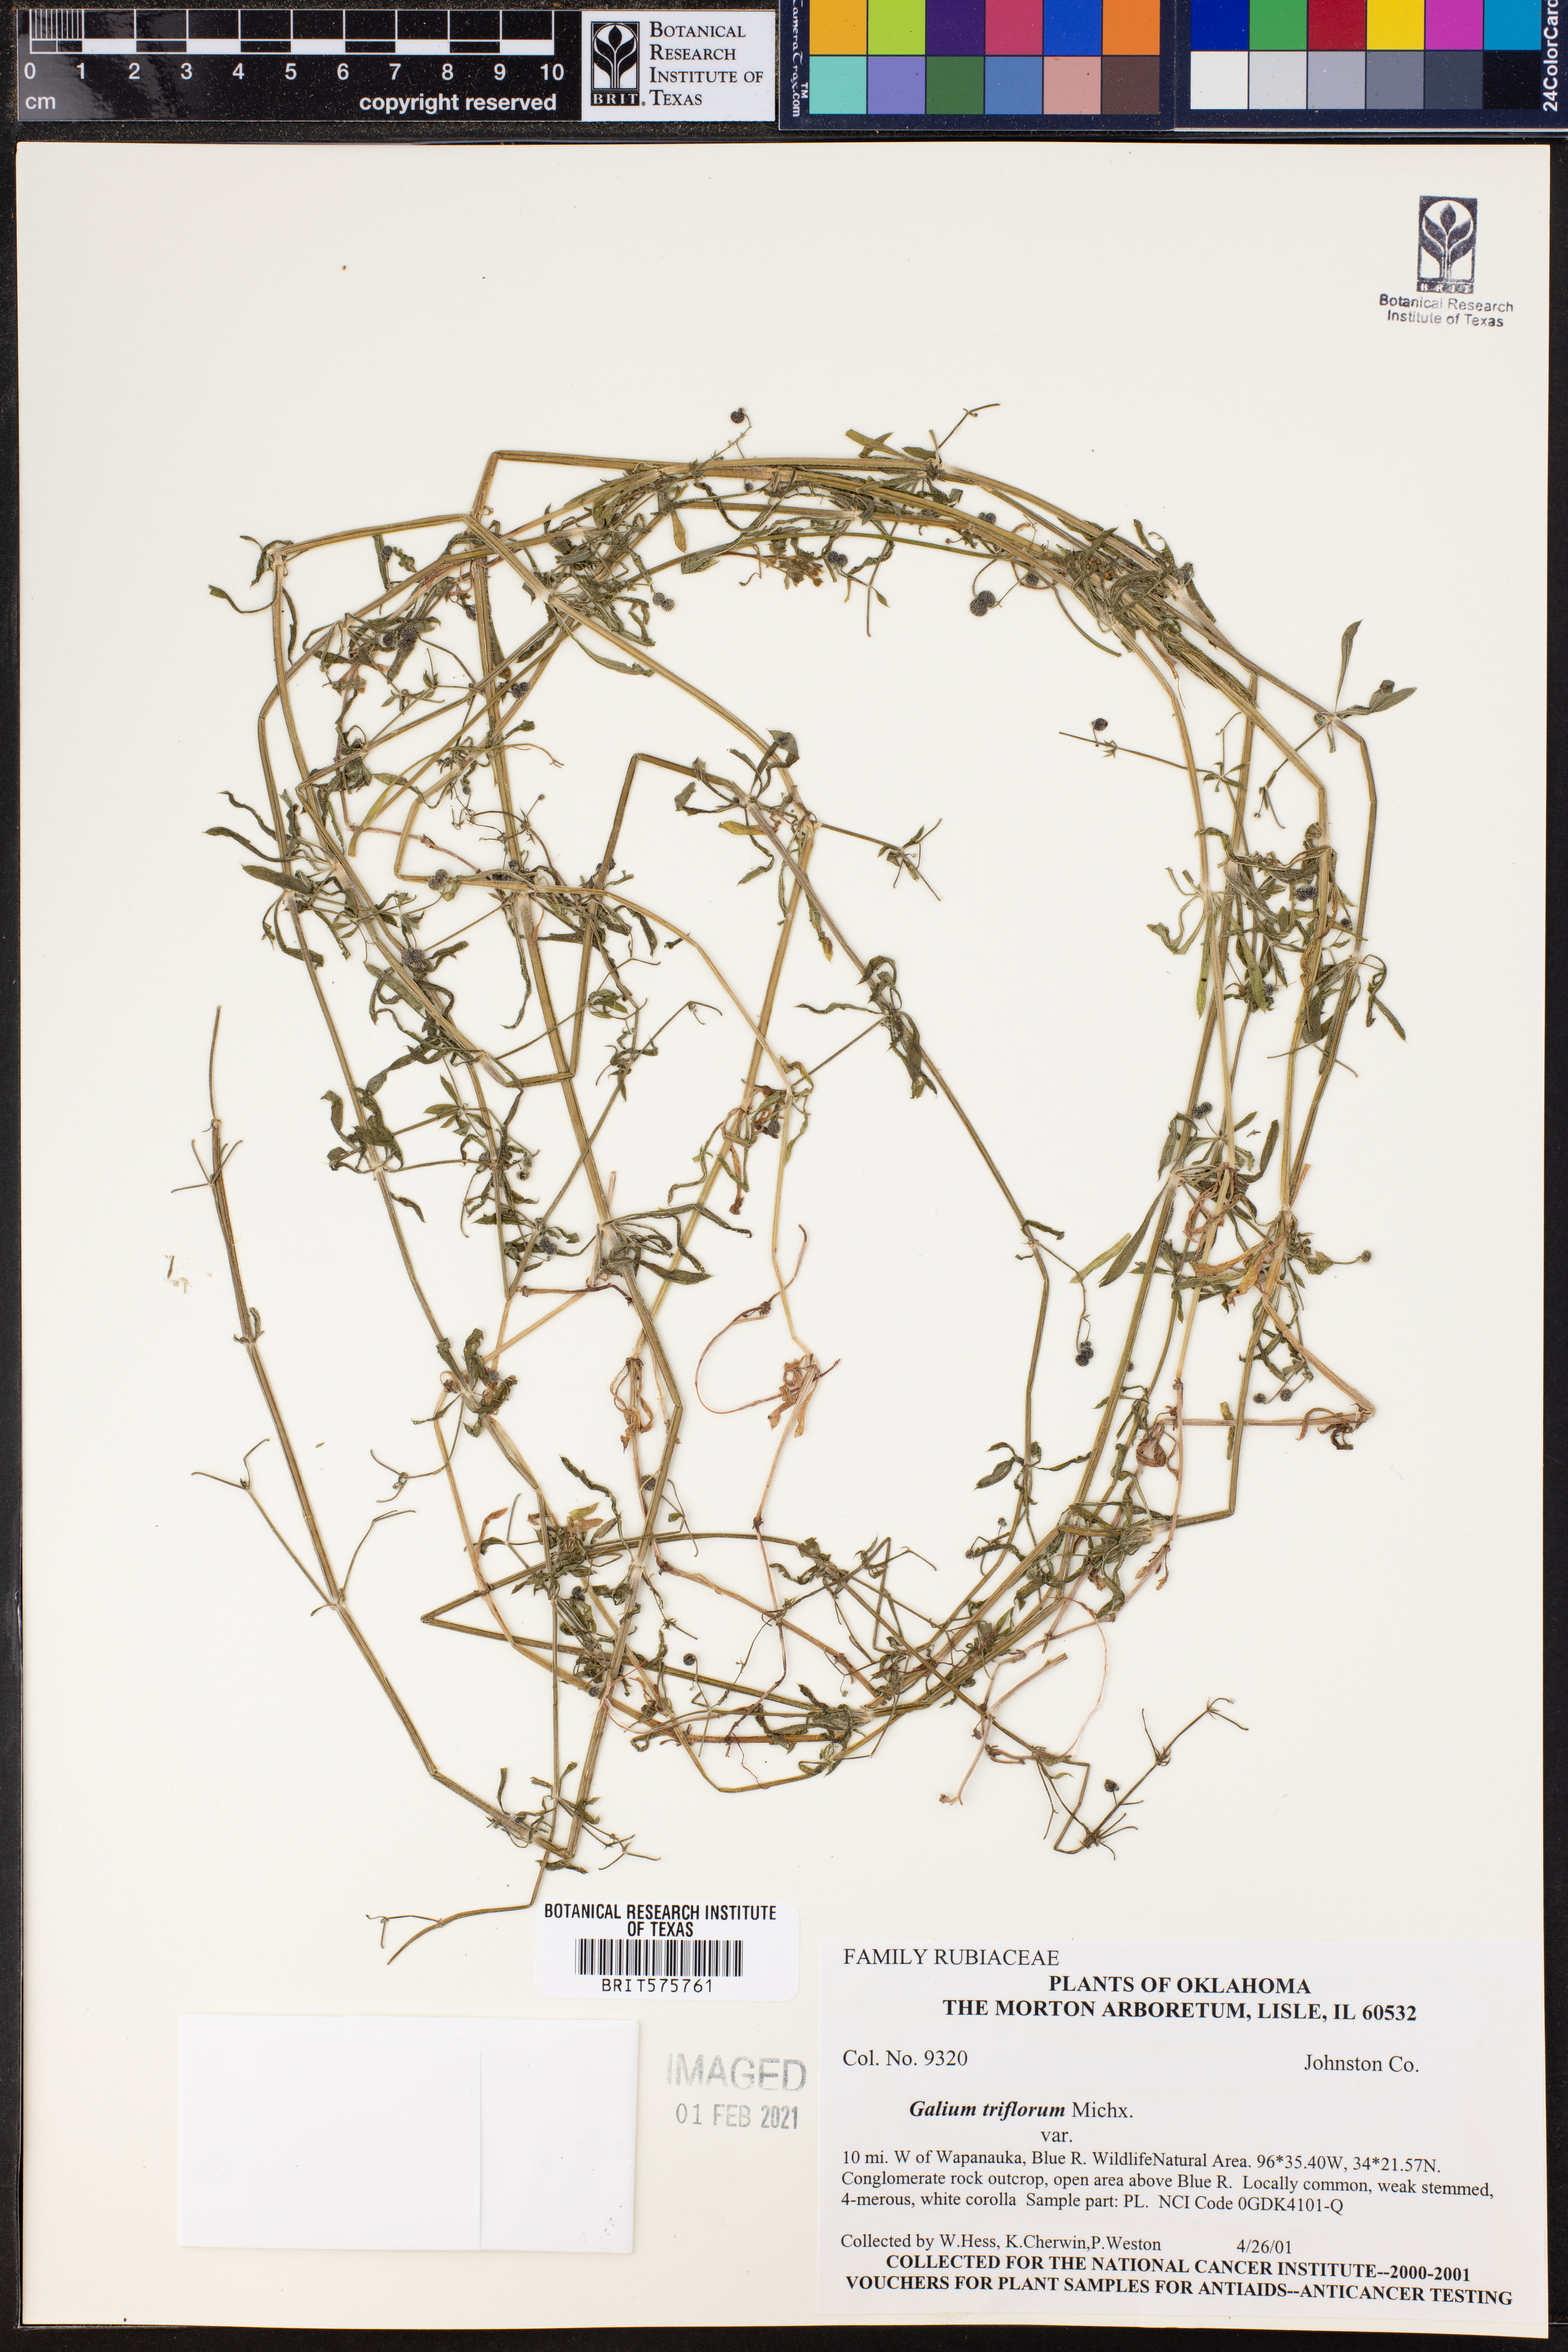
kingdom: Plantae
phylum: Tracheophyta
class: Magnoliopsida
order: Gentianales
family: Rubiaceae
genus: Galium
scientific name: Galium triflorum
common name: Fragrant bedstraw
